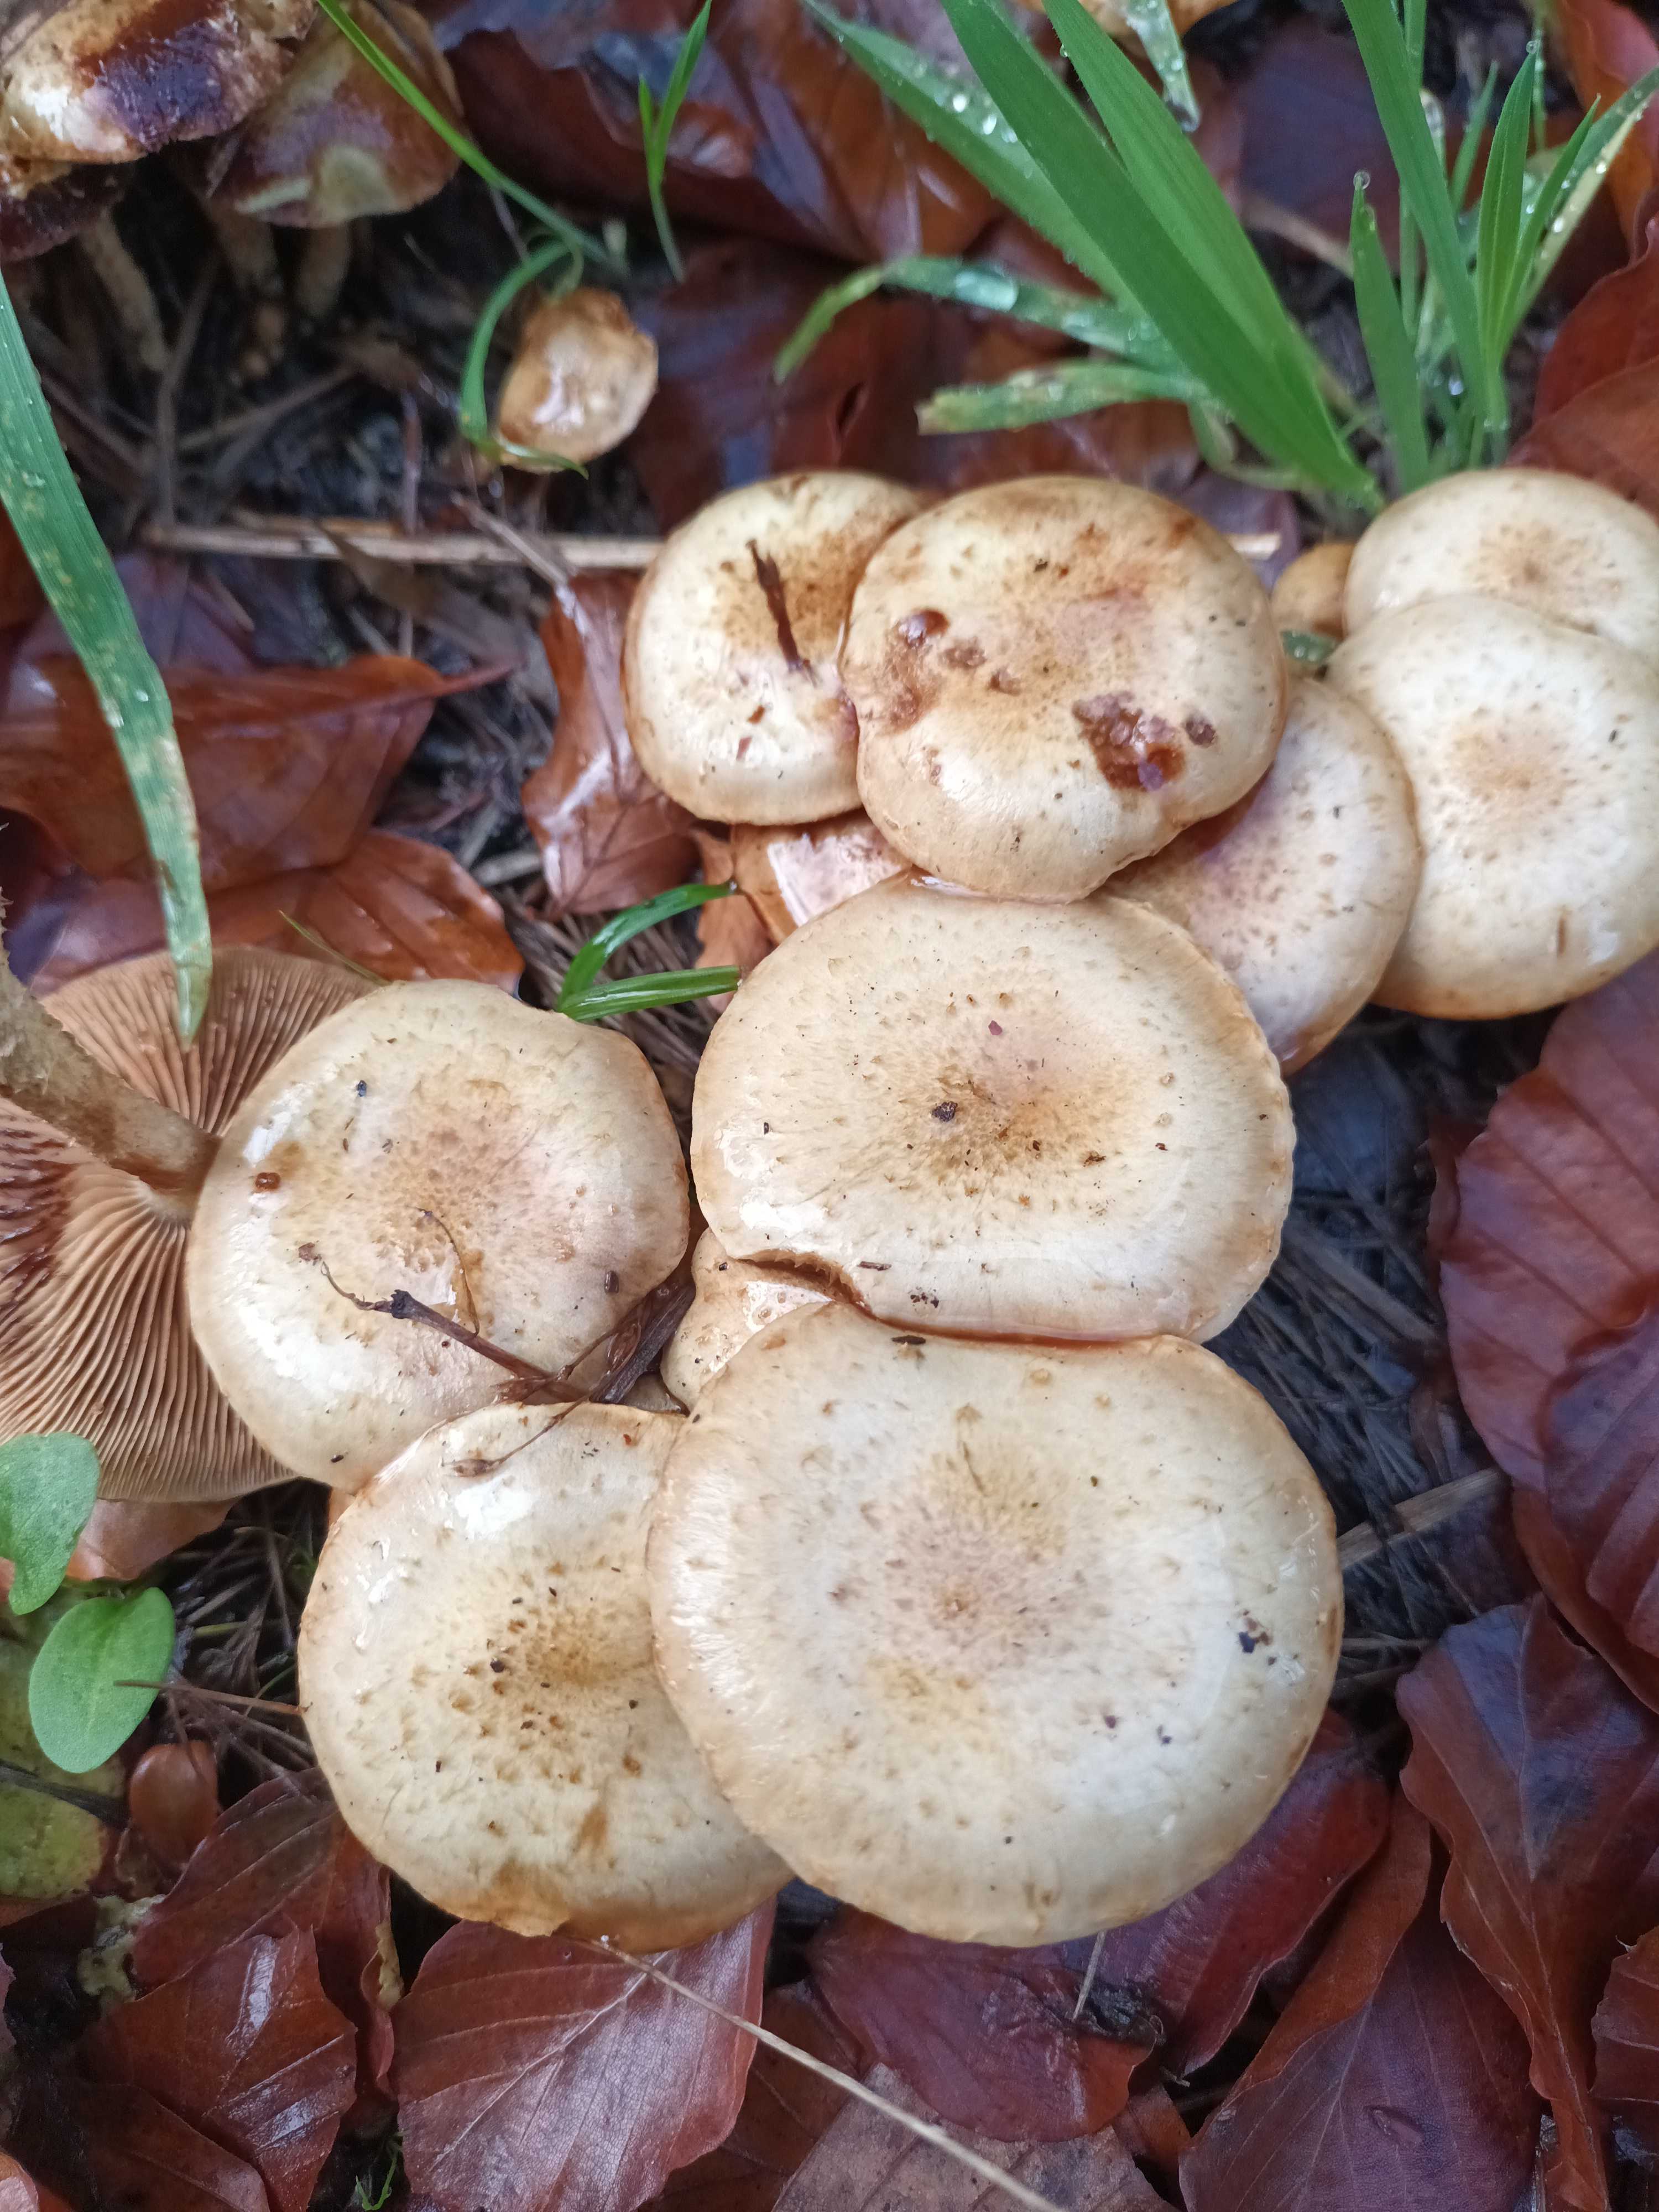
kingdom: Fungi
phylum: Basidiomycota
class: Agaricomycetes
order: Agaricales
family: Strophariaceae
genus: Pholiota
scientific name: Pholiota gummosa
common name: grøngul skælhat
